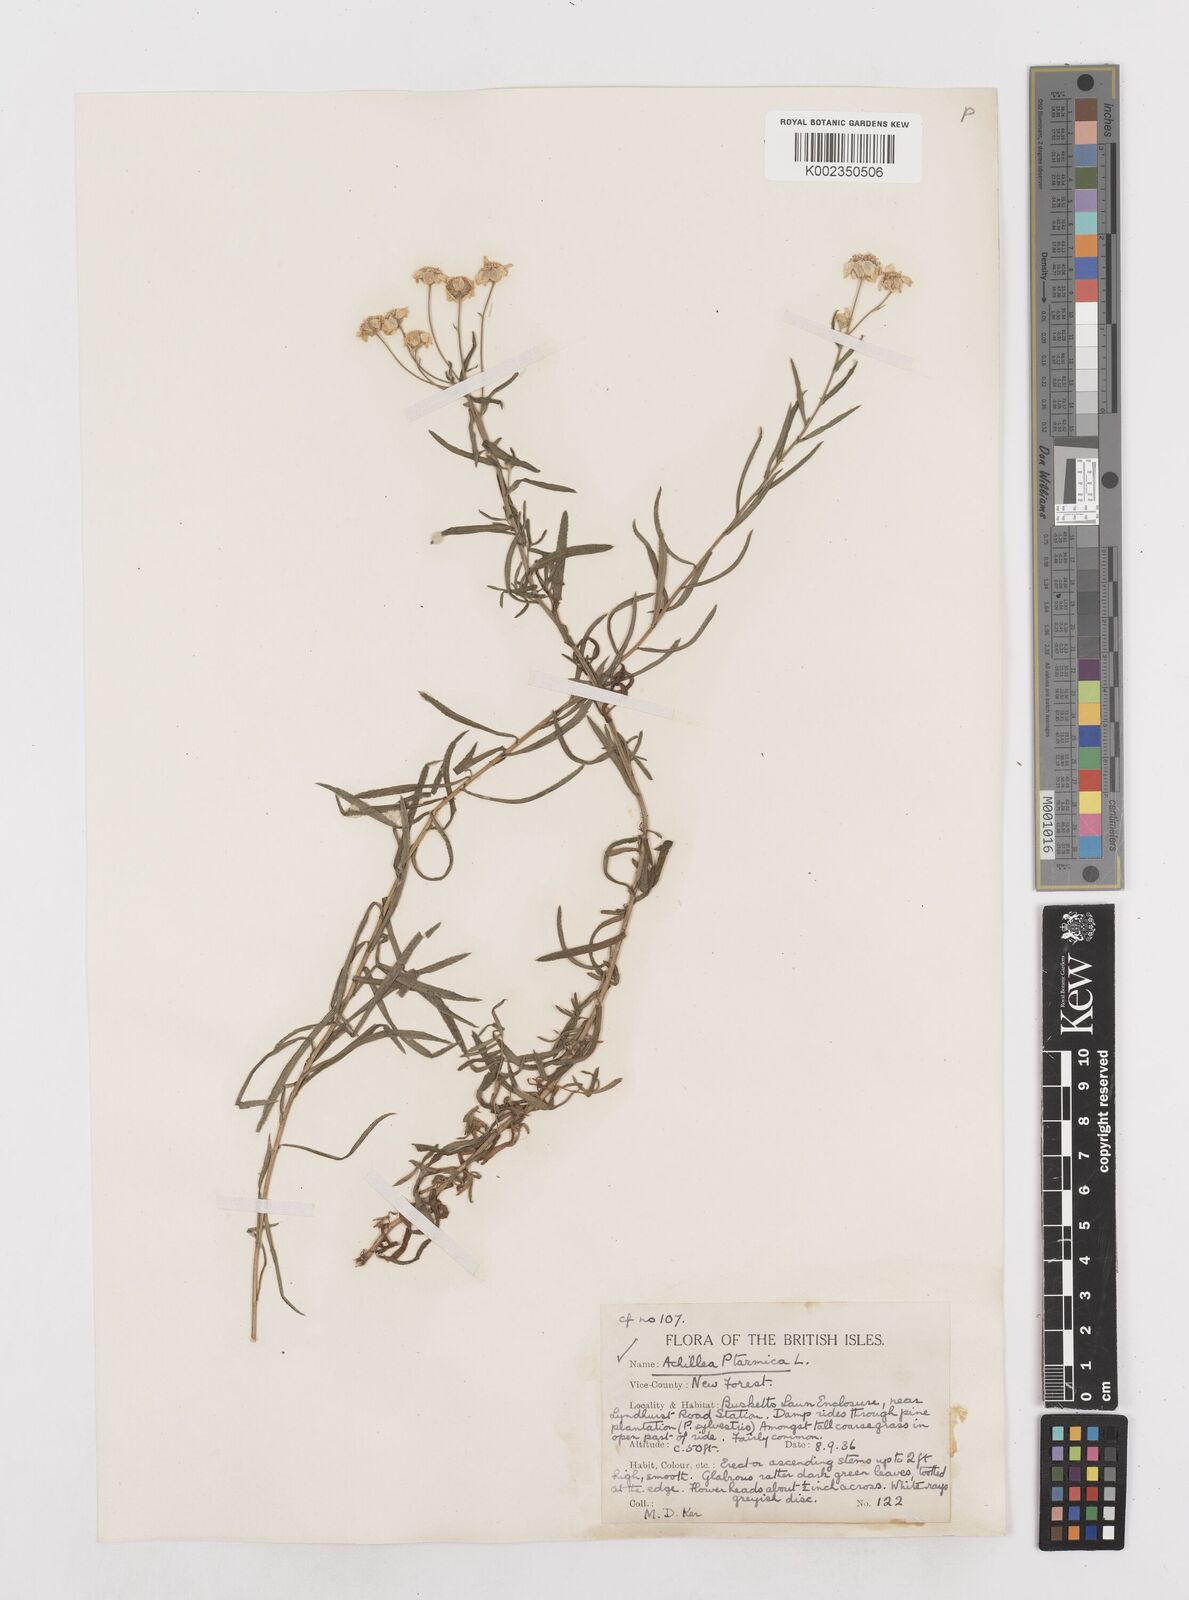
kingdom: Plantae
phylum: Tracheophyta
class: Magnoliopsida
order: Asterales
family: Asteraceae
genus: Achillea
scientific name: Achillea ptarmica
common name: Sneezeweed
